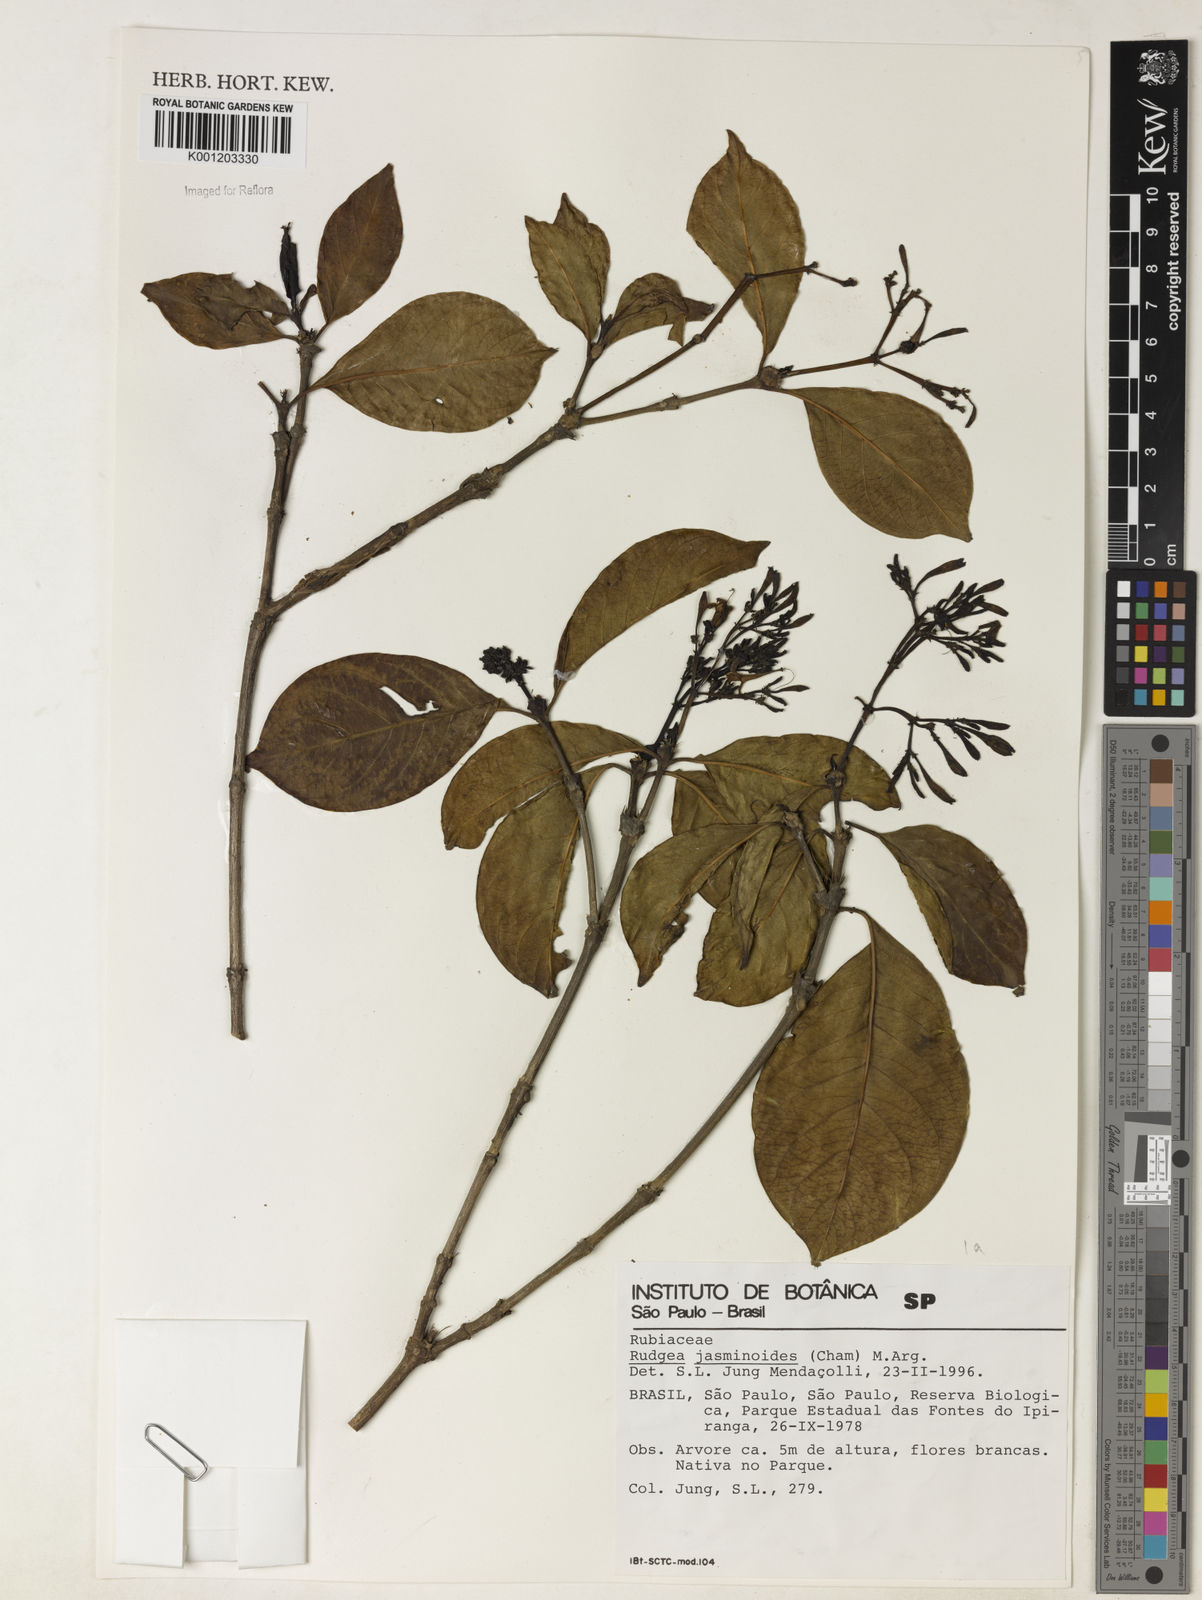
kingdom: Plantae
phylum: Tracheophyta
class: Magnoliopsida
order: Gentianales
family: Rubiaceae
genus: Rudgea
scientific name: Rudgea
